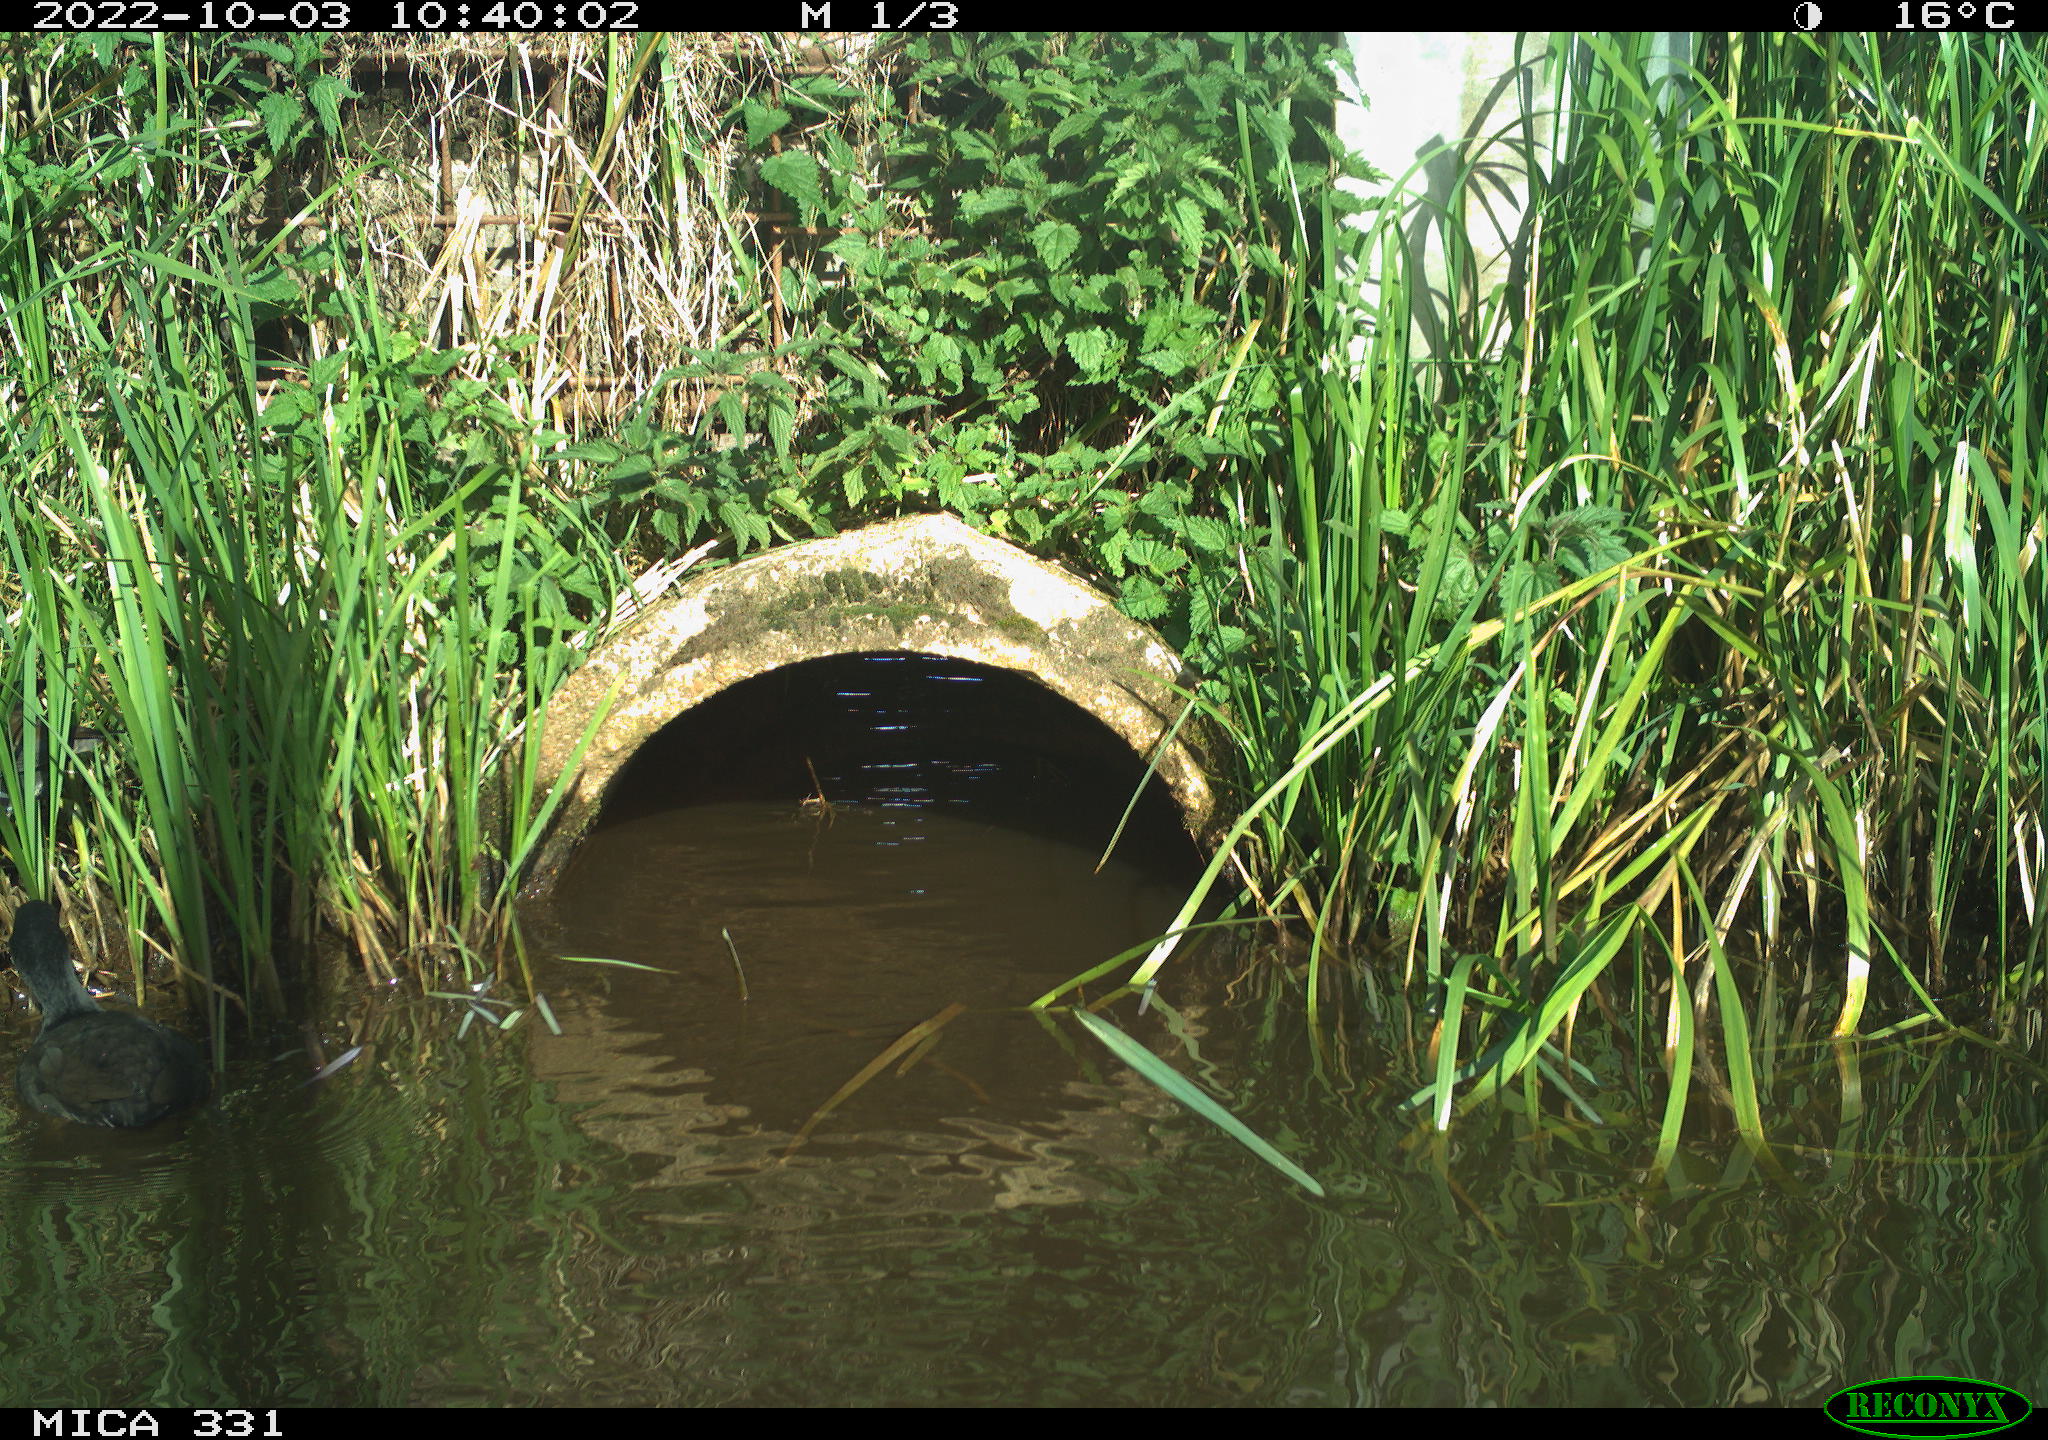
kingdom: Animalia
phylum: Chordata
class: Aves
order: Gruiformes
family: Rallidae
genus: Fulica
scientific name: Fulica atra
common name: Eurasian coot
